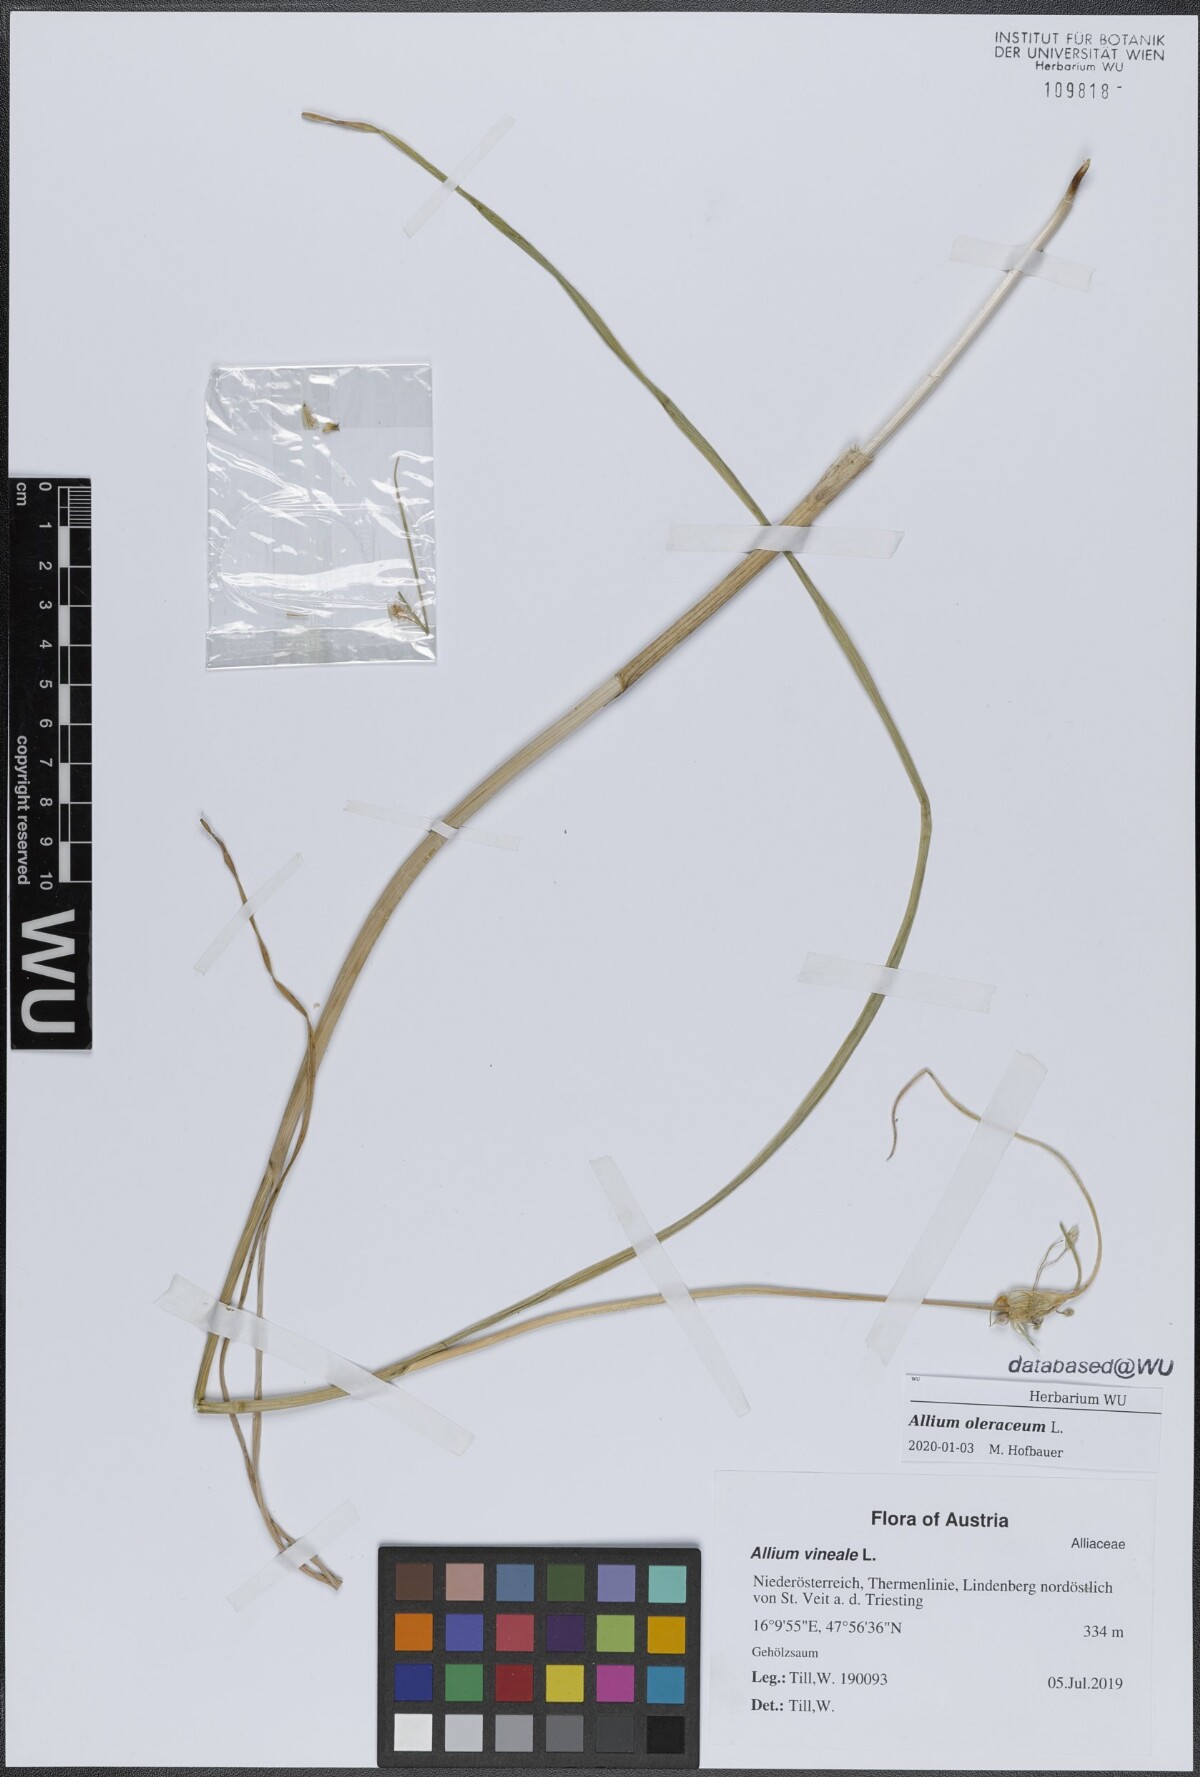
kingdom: Plantae
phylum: Tracheophyta
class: Liliopsida
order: Asparagales
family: Amaryllidaceae
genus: Allium
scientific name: Allium oleraceum
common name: Field garlic
